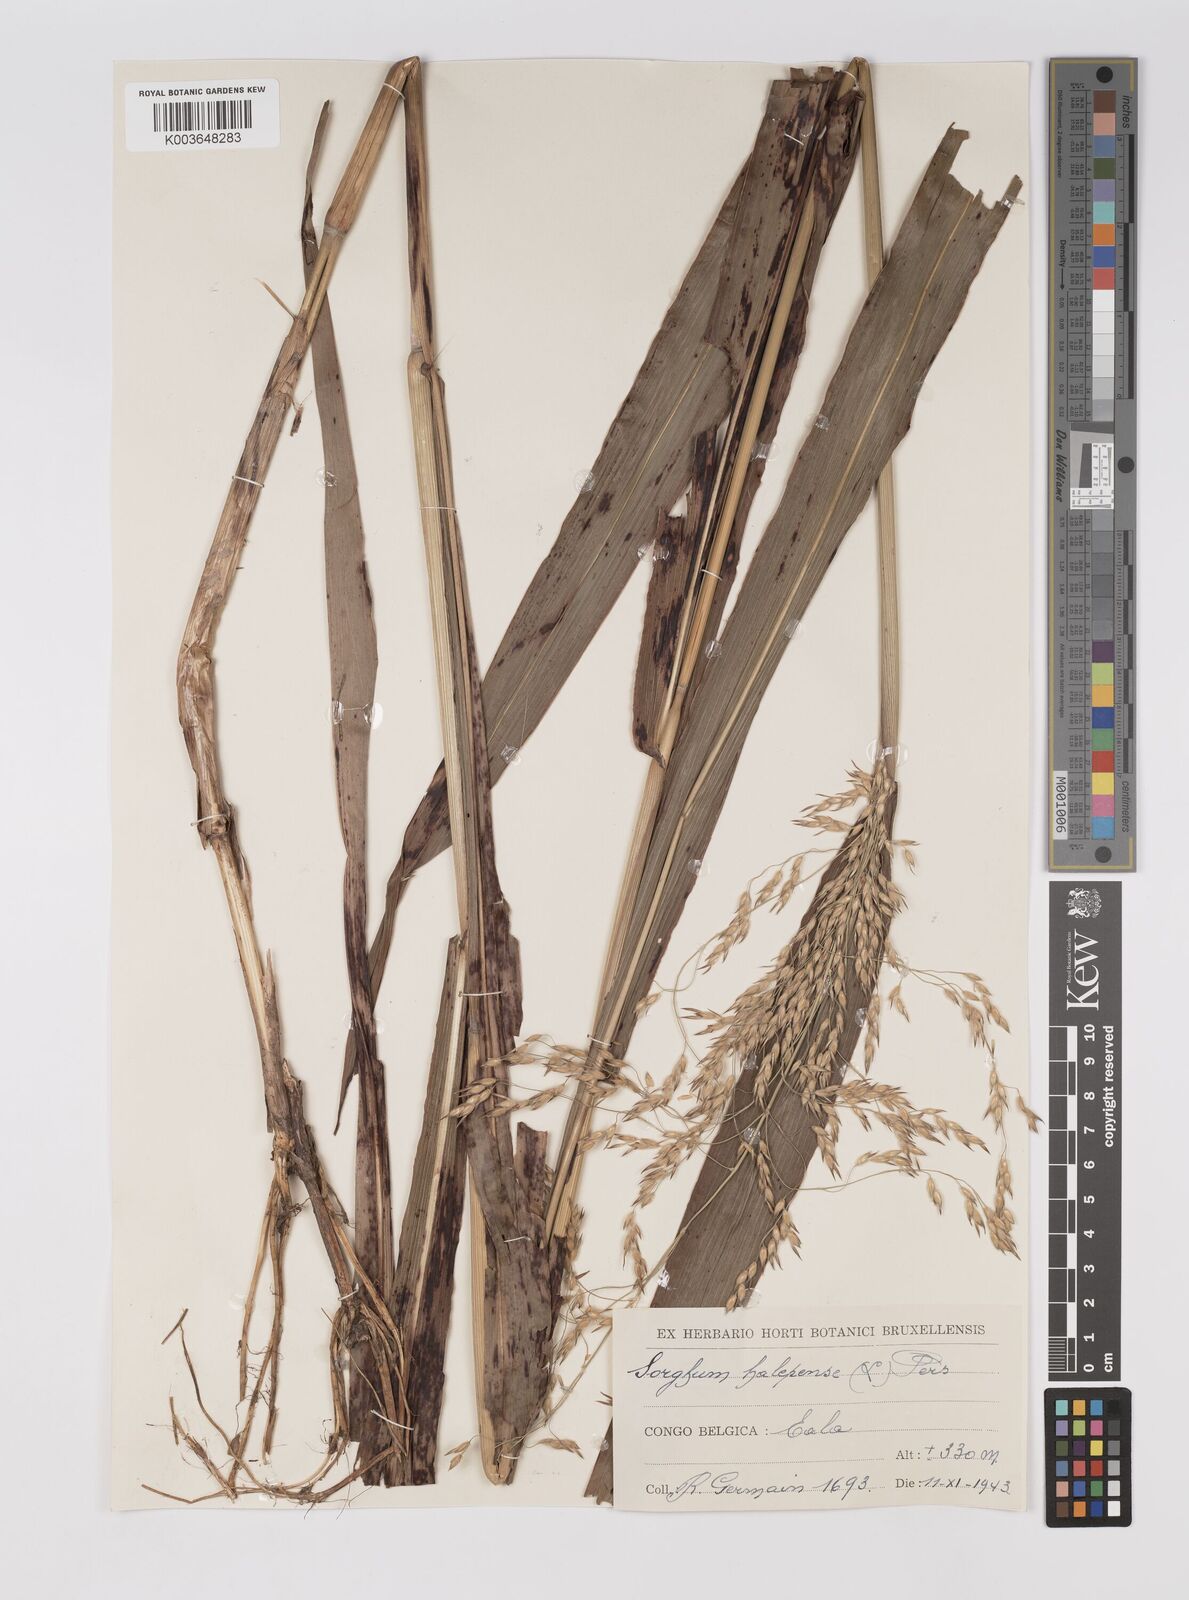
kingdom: Plantae
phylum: Tracheophyta
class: Liliopsida
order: Poales
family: Poaceae
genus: Sorghum
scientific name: Sorghum halepense
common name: Johnson-grass
